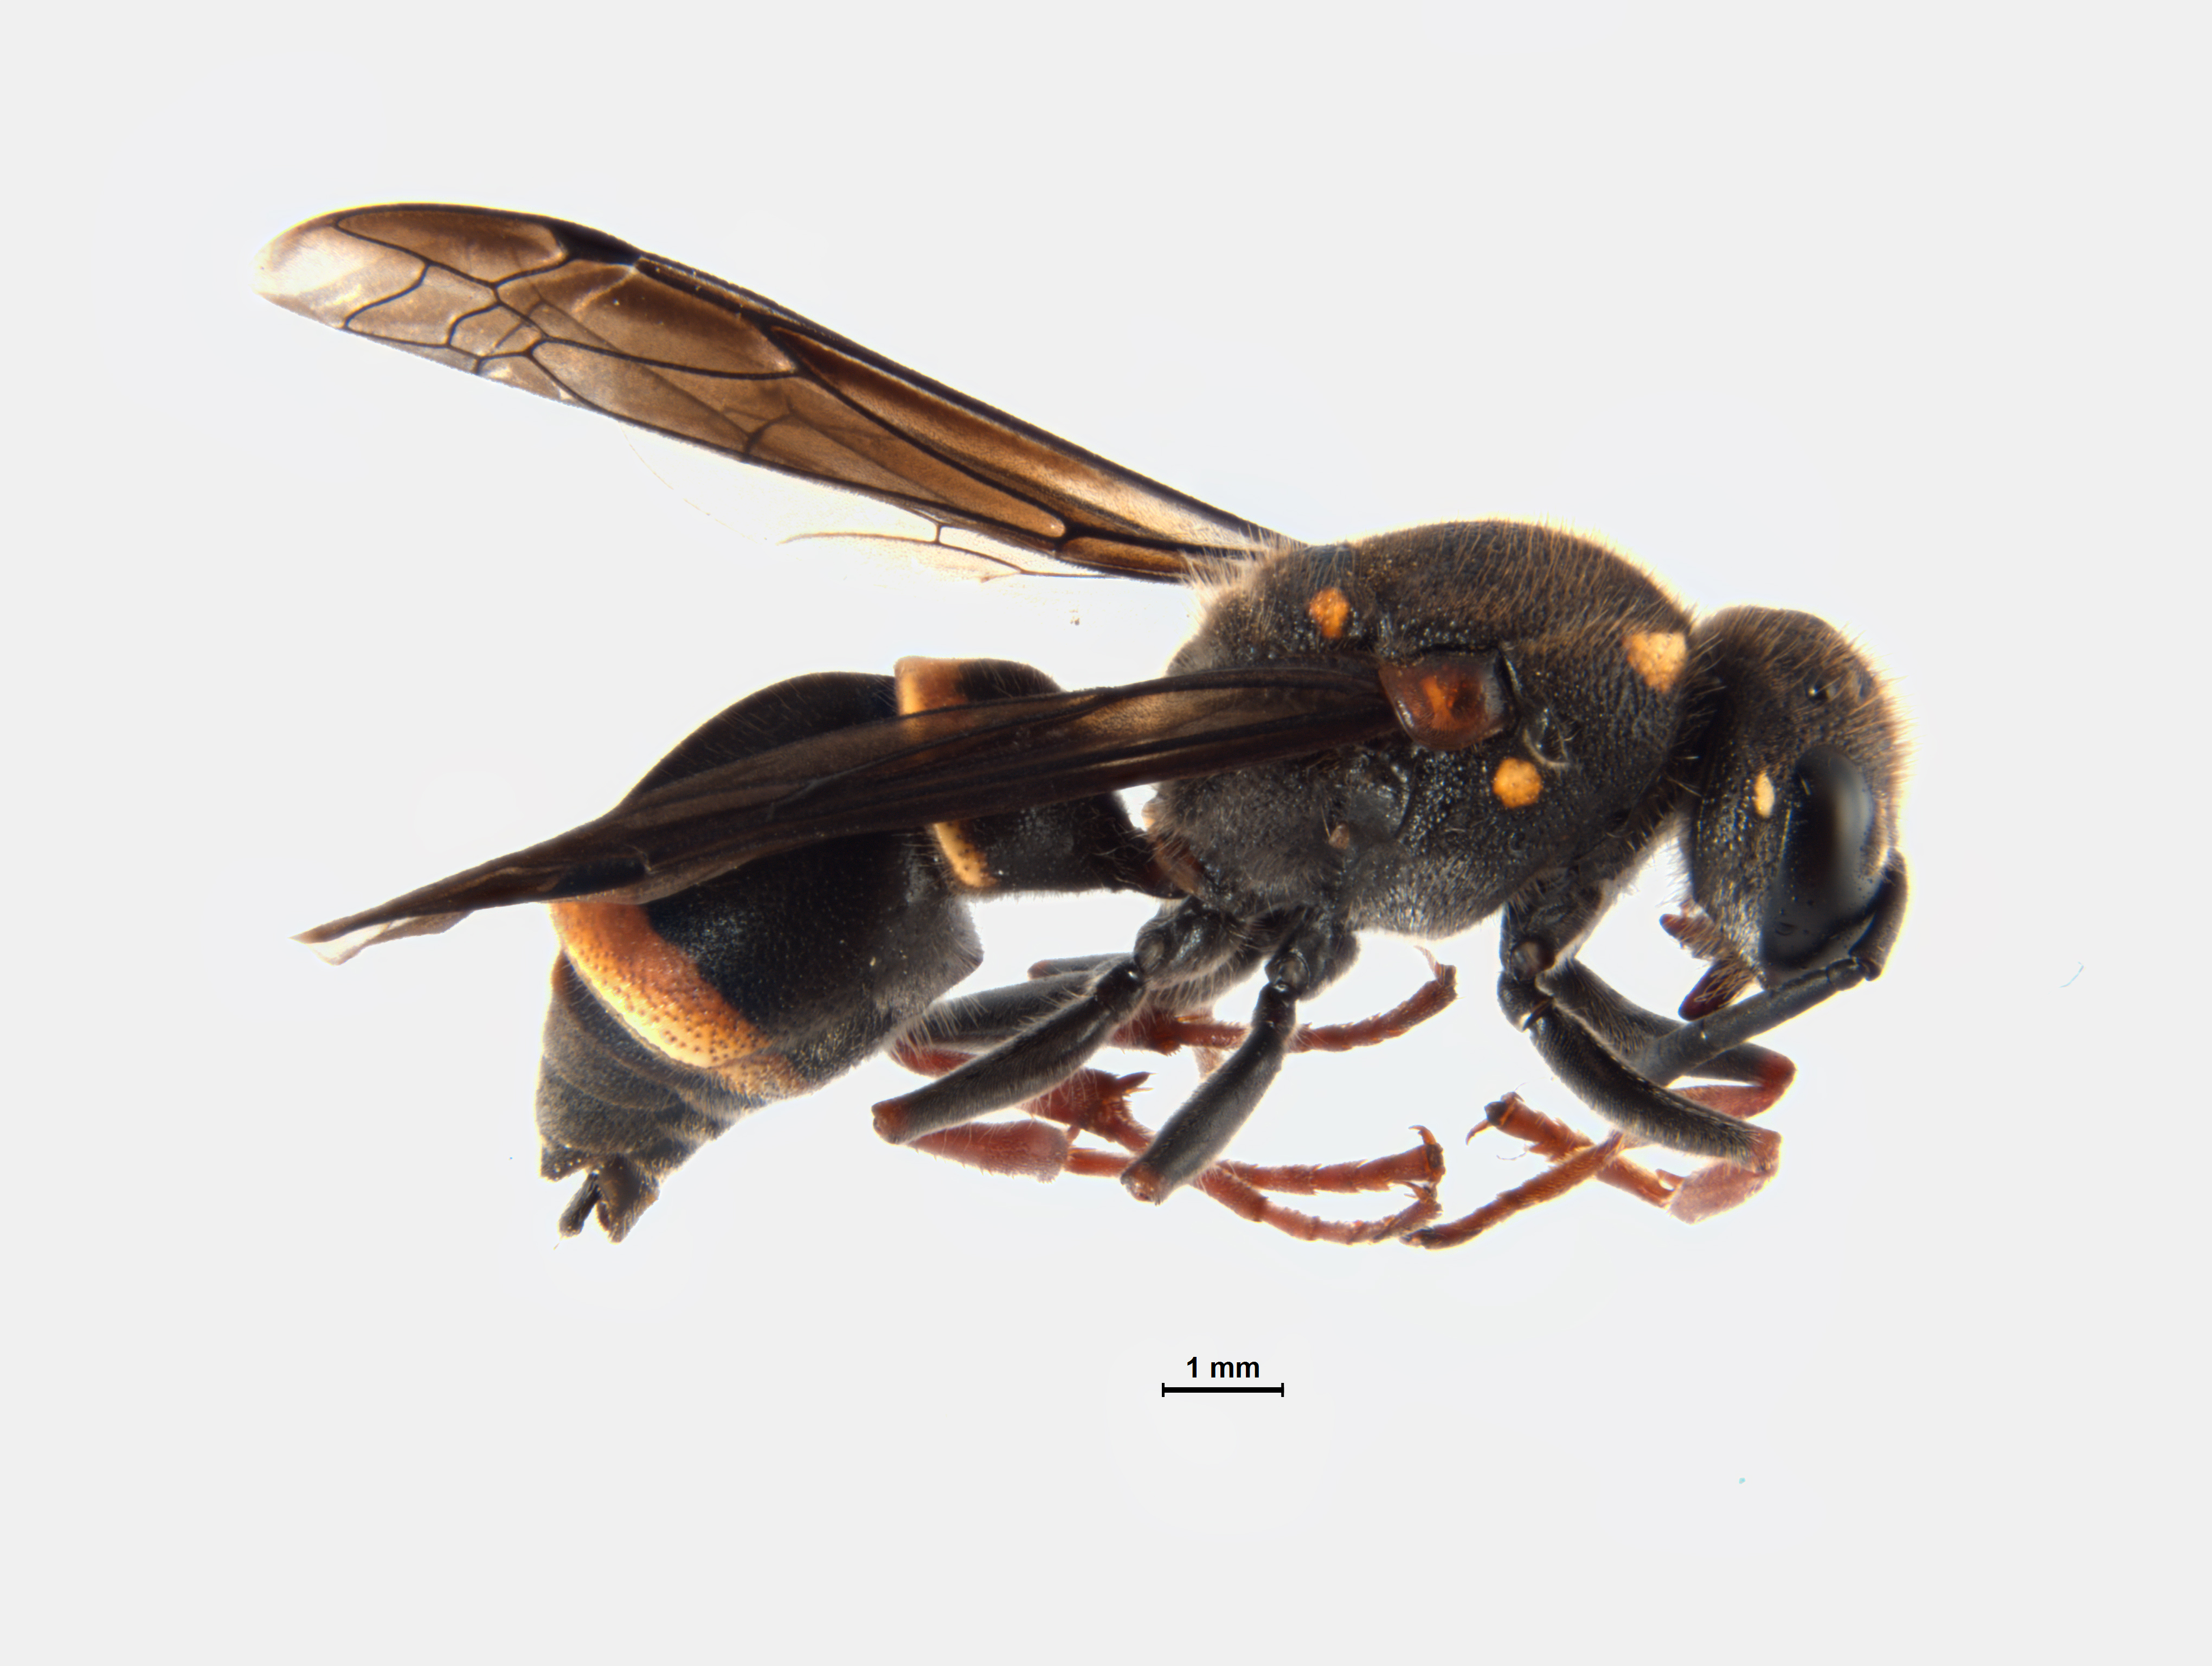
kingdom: Animalia
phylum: Arthropoda
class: Insecta
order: Hymenoptera
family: Eumenidae
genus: Paralastor
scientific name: Paralastor
